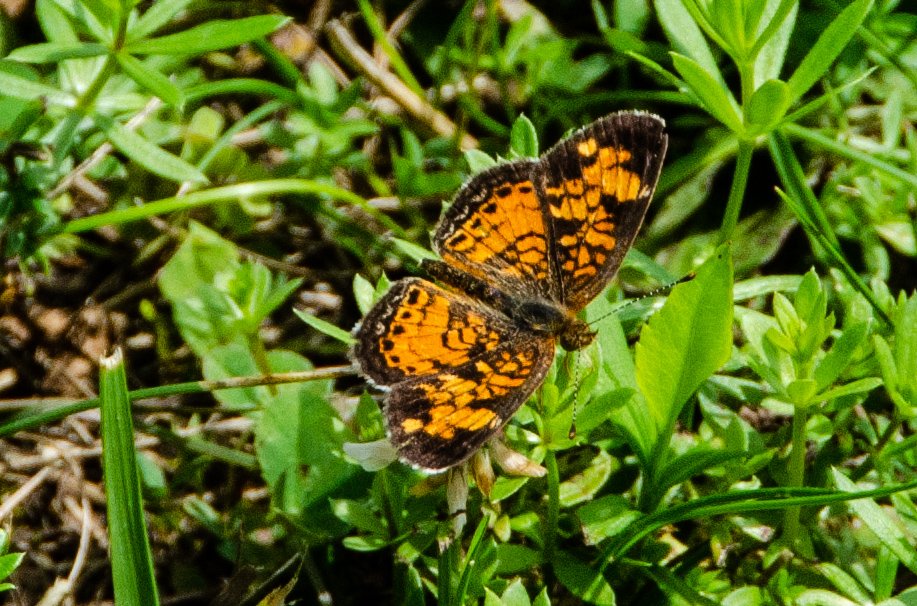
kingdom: Animalia
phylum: Arthropoda
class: Insecta
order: Lepidoptera
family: Nymphalidae
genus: Phyciodes
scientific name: Phyciodes tharos
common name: Northern Crescent
